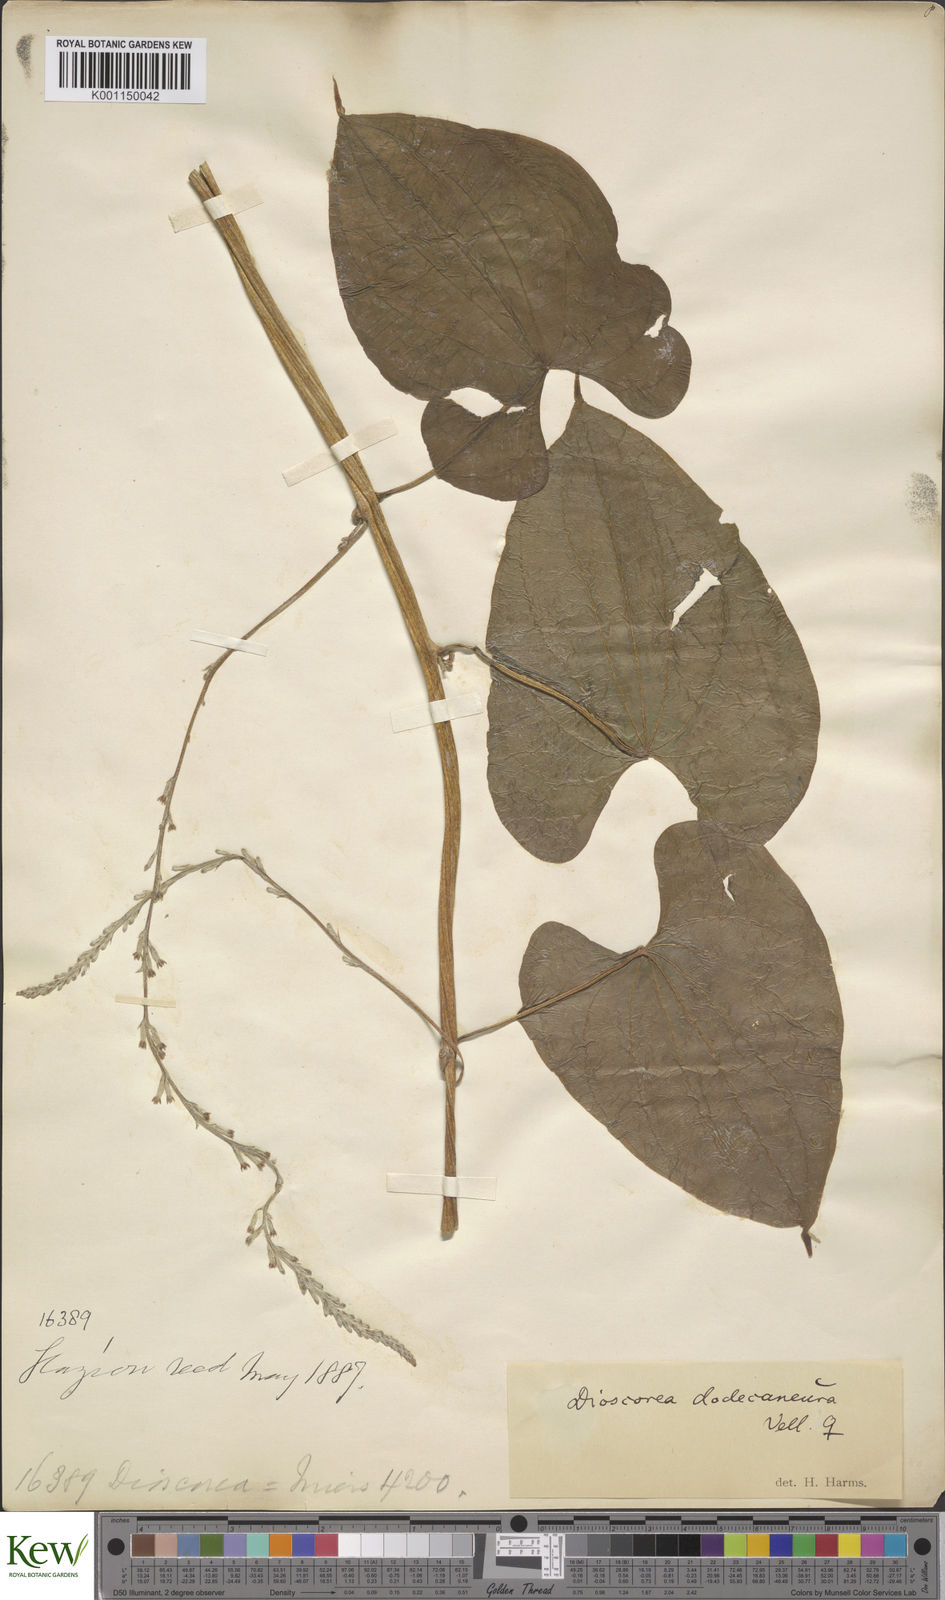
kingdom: Plantae
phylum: Tracheophyta
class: Liliopsida
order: Dioscoreales
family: Dioscoreaceae
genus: Dioscorea
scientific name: Dioscorea dodecaneura
